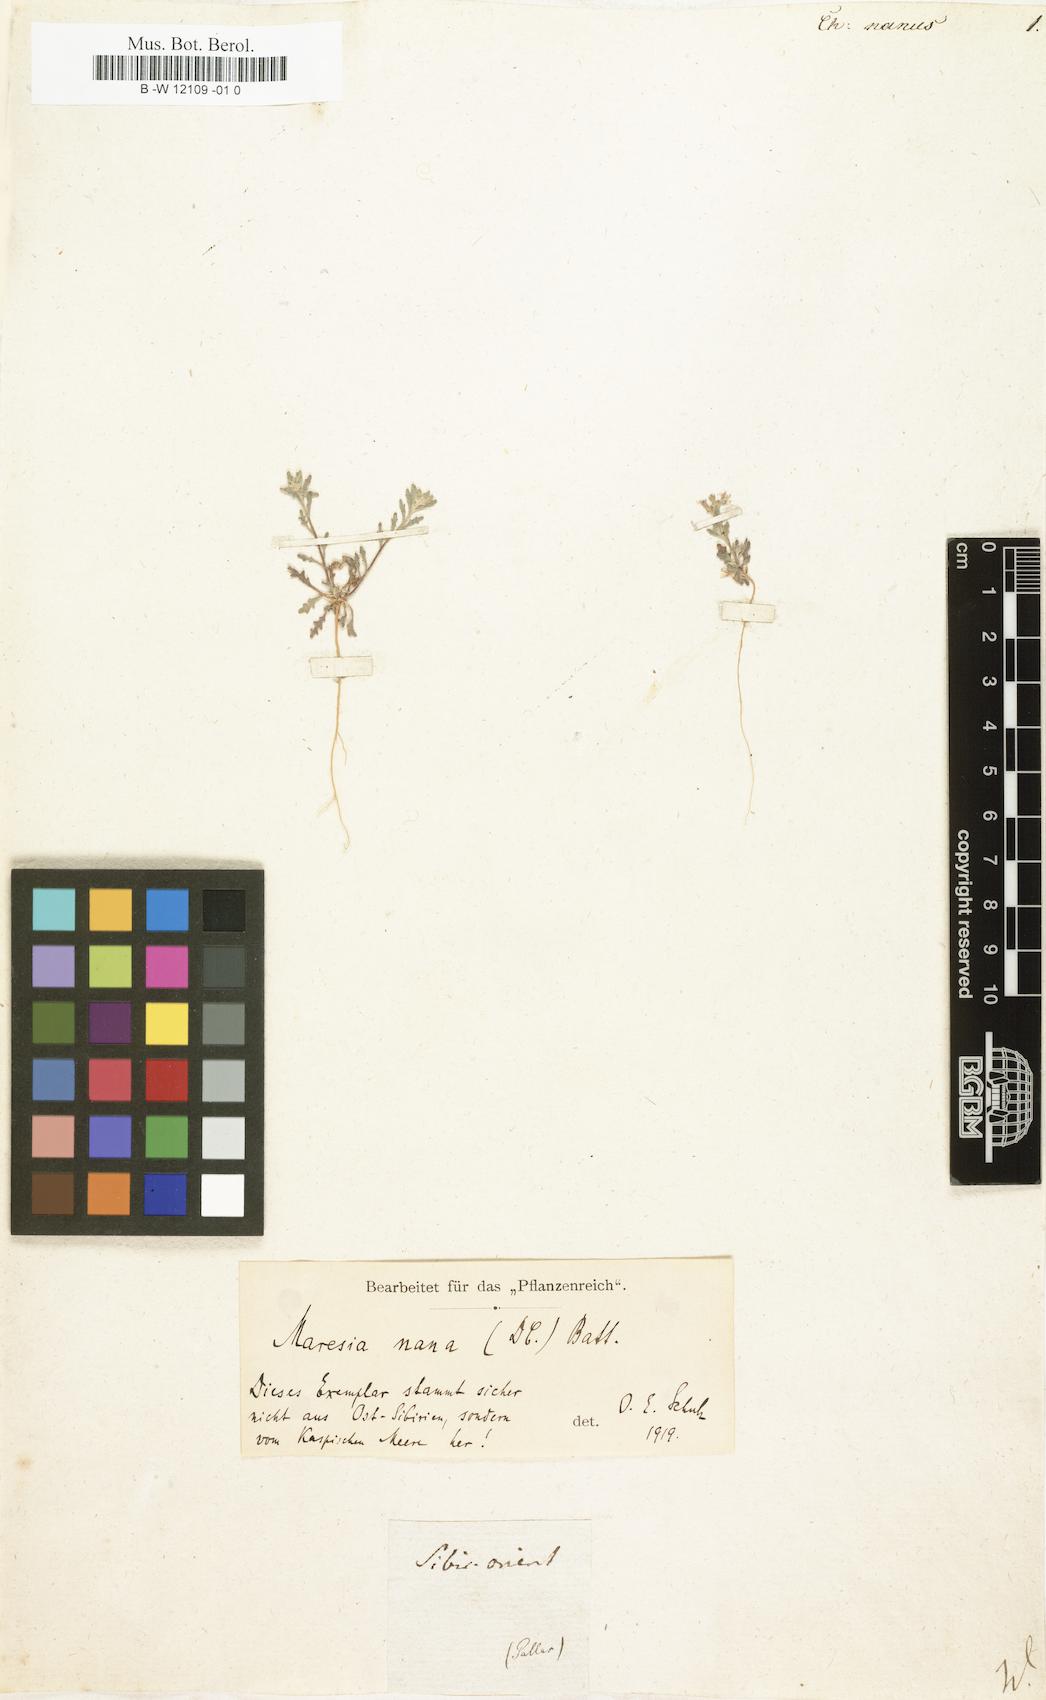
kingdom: Plantae
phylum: Tracheophyta
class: Magnoliopsida
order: Brassicales
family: Brassicaceae
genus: Maresia
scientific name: Maresia nana
